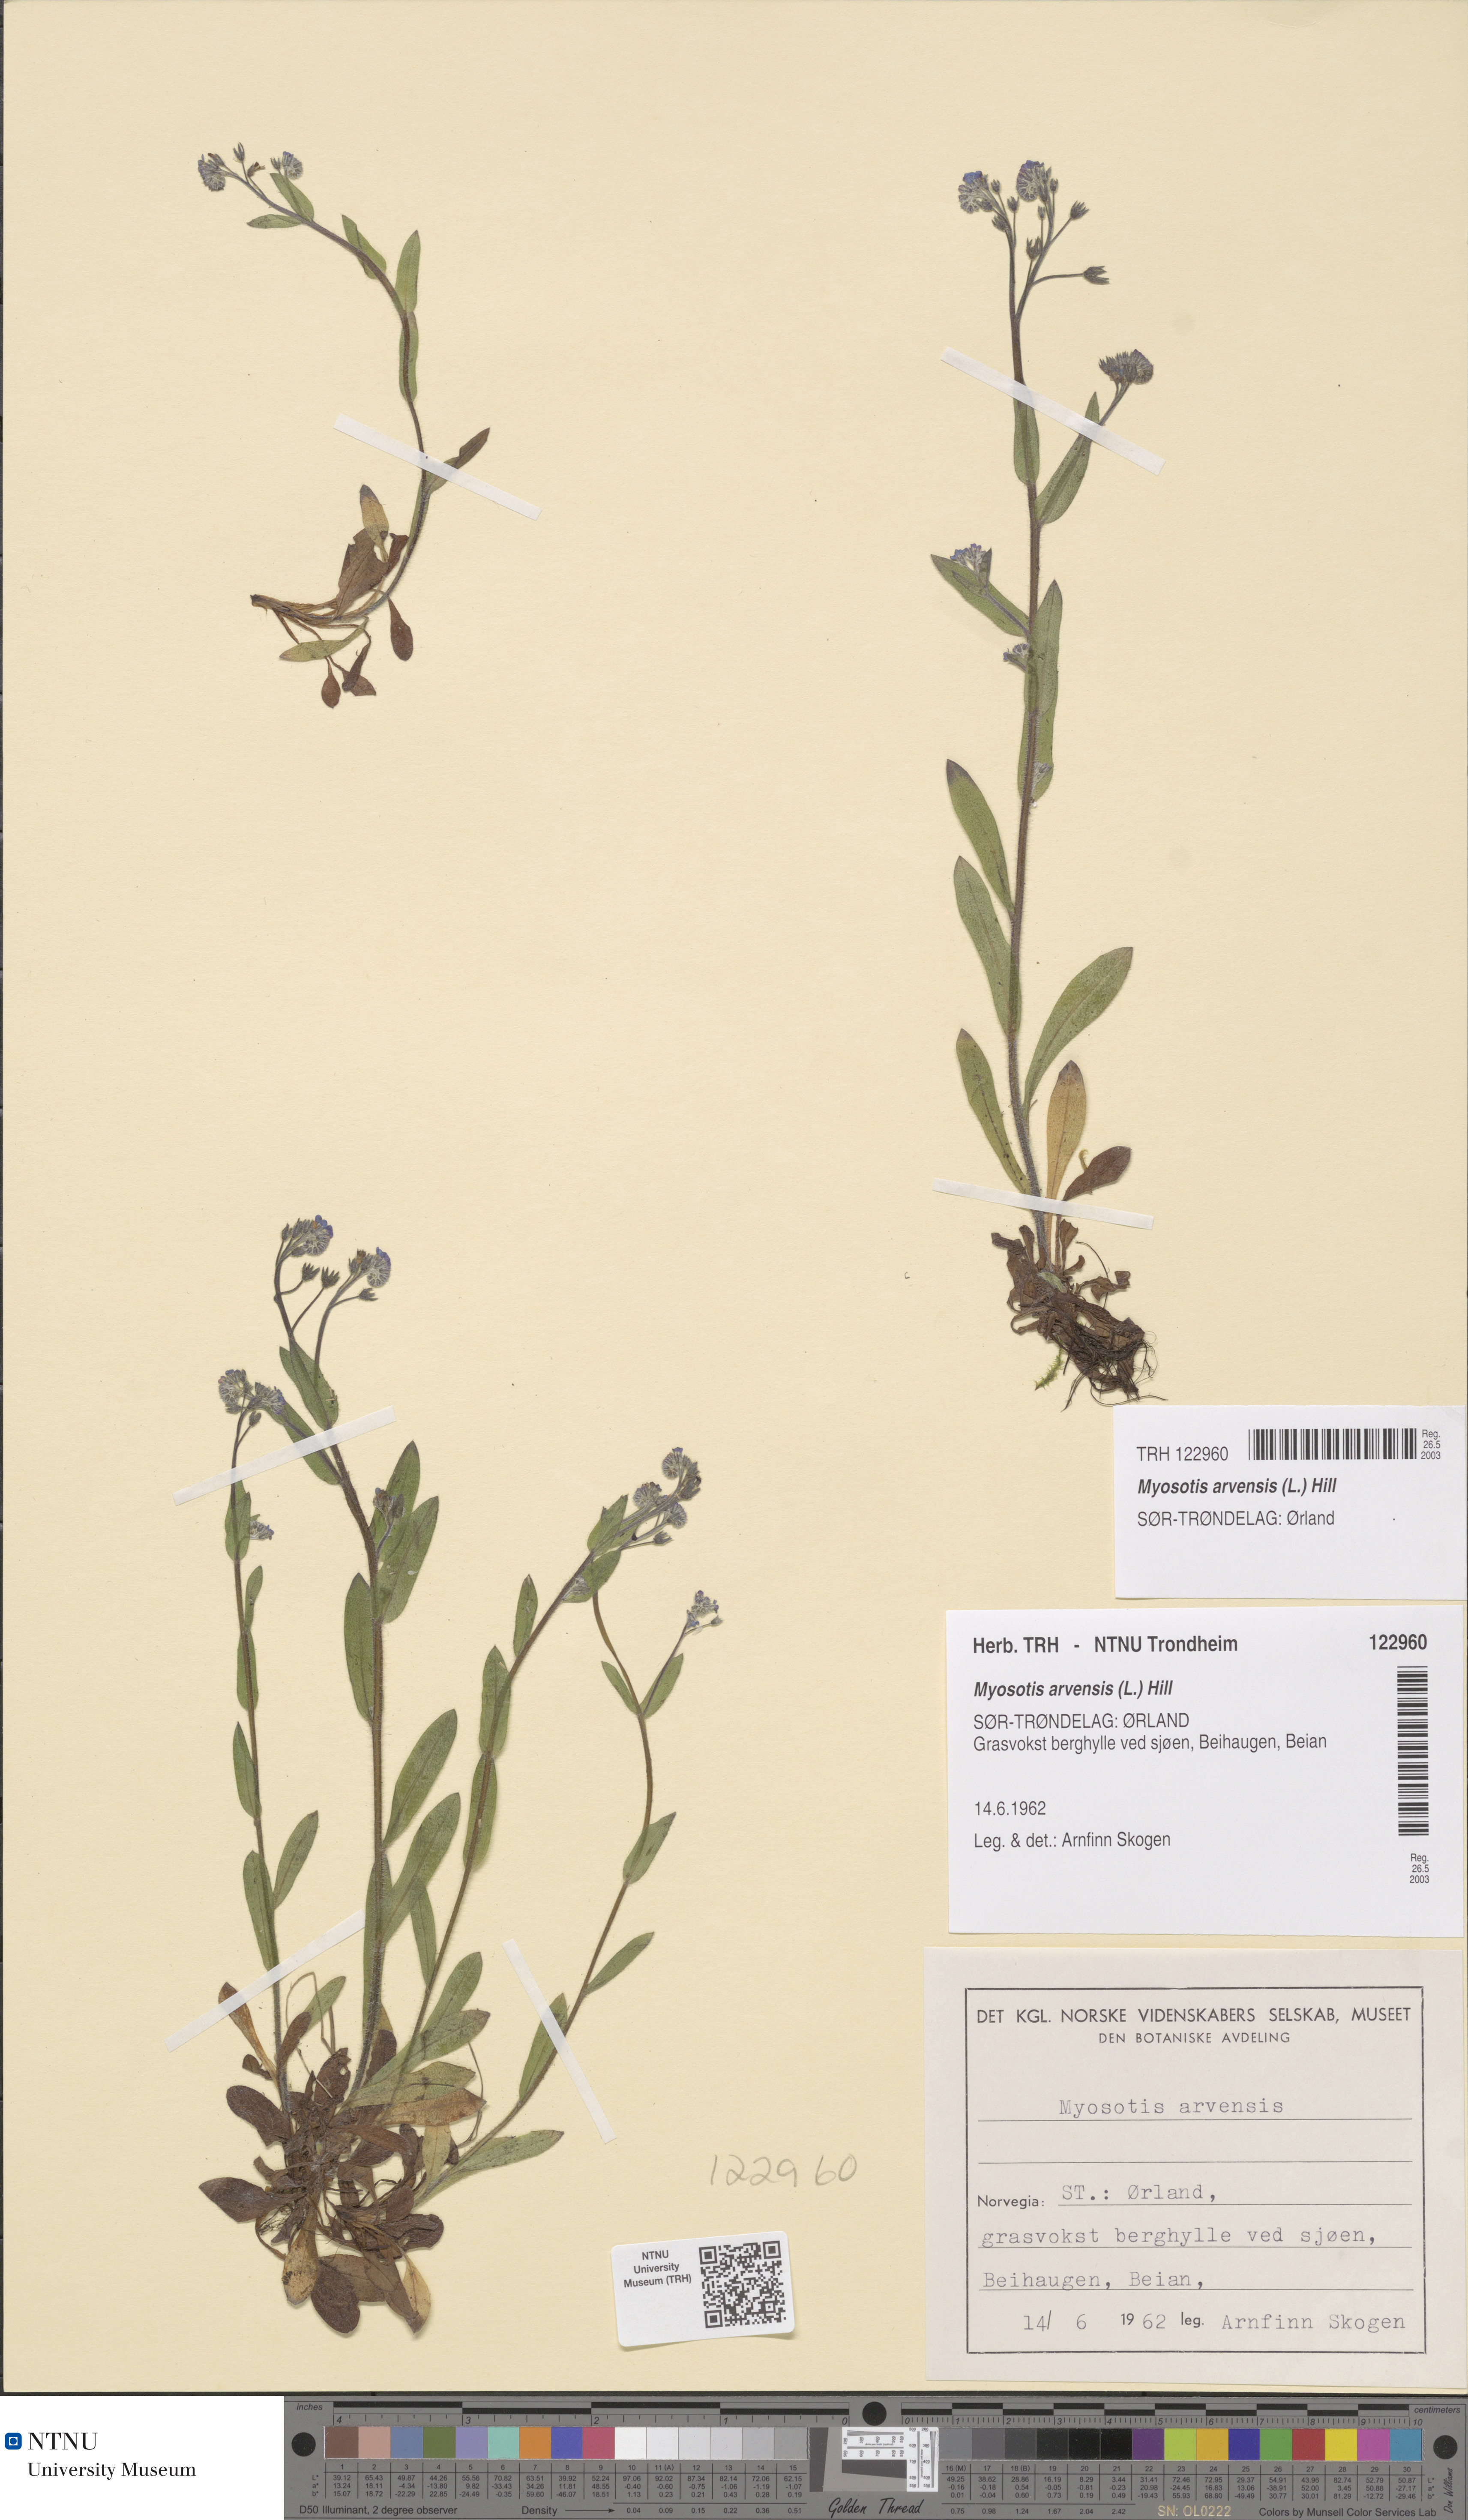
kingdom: Plantae
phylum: Tracheophyta
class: Magnoliopsida
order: Boraginales
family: Boraginaceae
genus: Myosotis
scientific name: Myosotis arvensis
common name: Field forget-me-not
